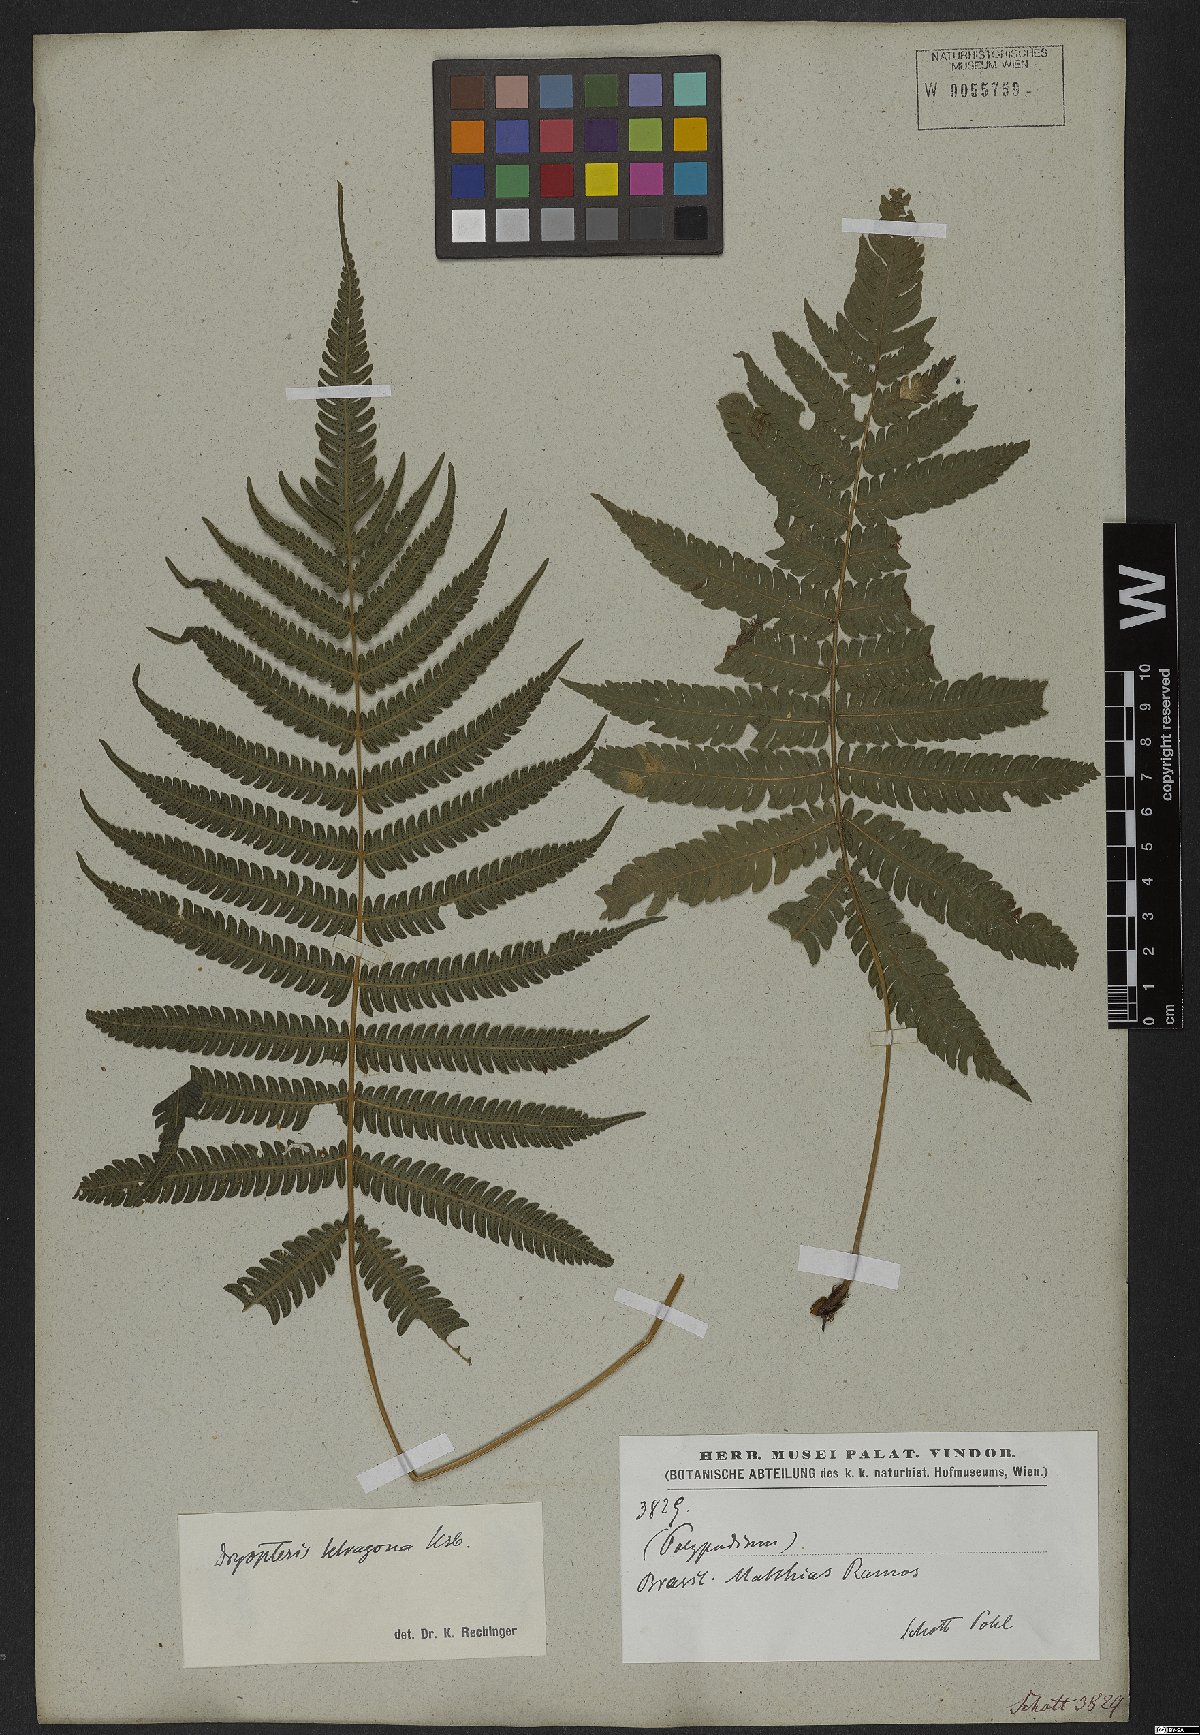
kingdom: Plantae
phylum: Tracheophyta
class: Polypodiopsida
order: Polypodiales
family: Thelypteridaceae
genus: Goniopteris
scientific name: Goniopteris lugubris
